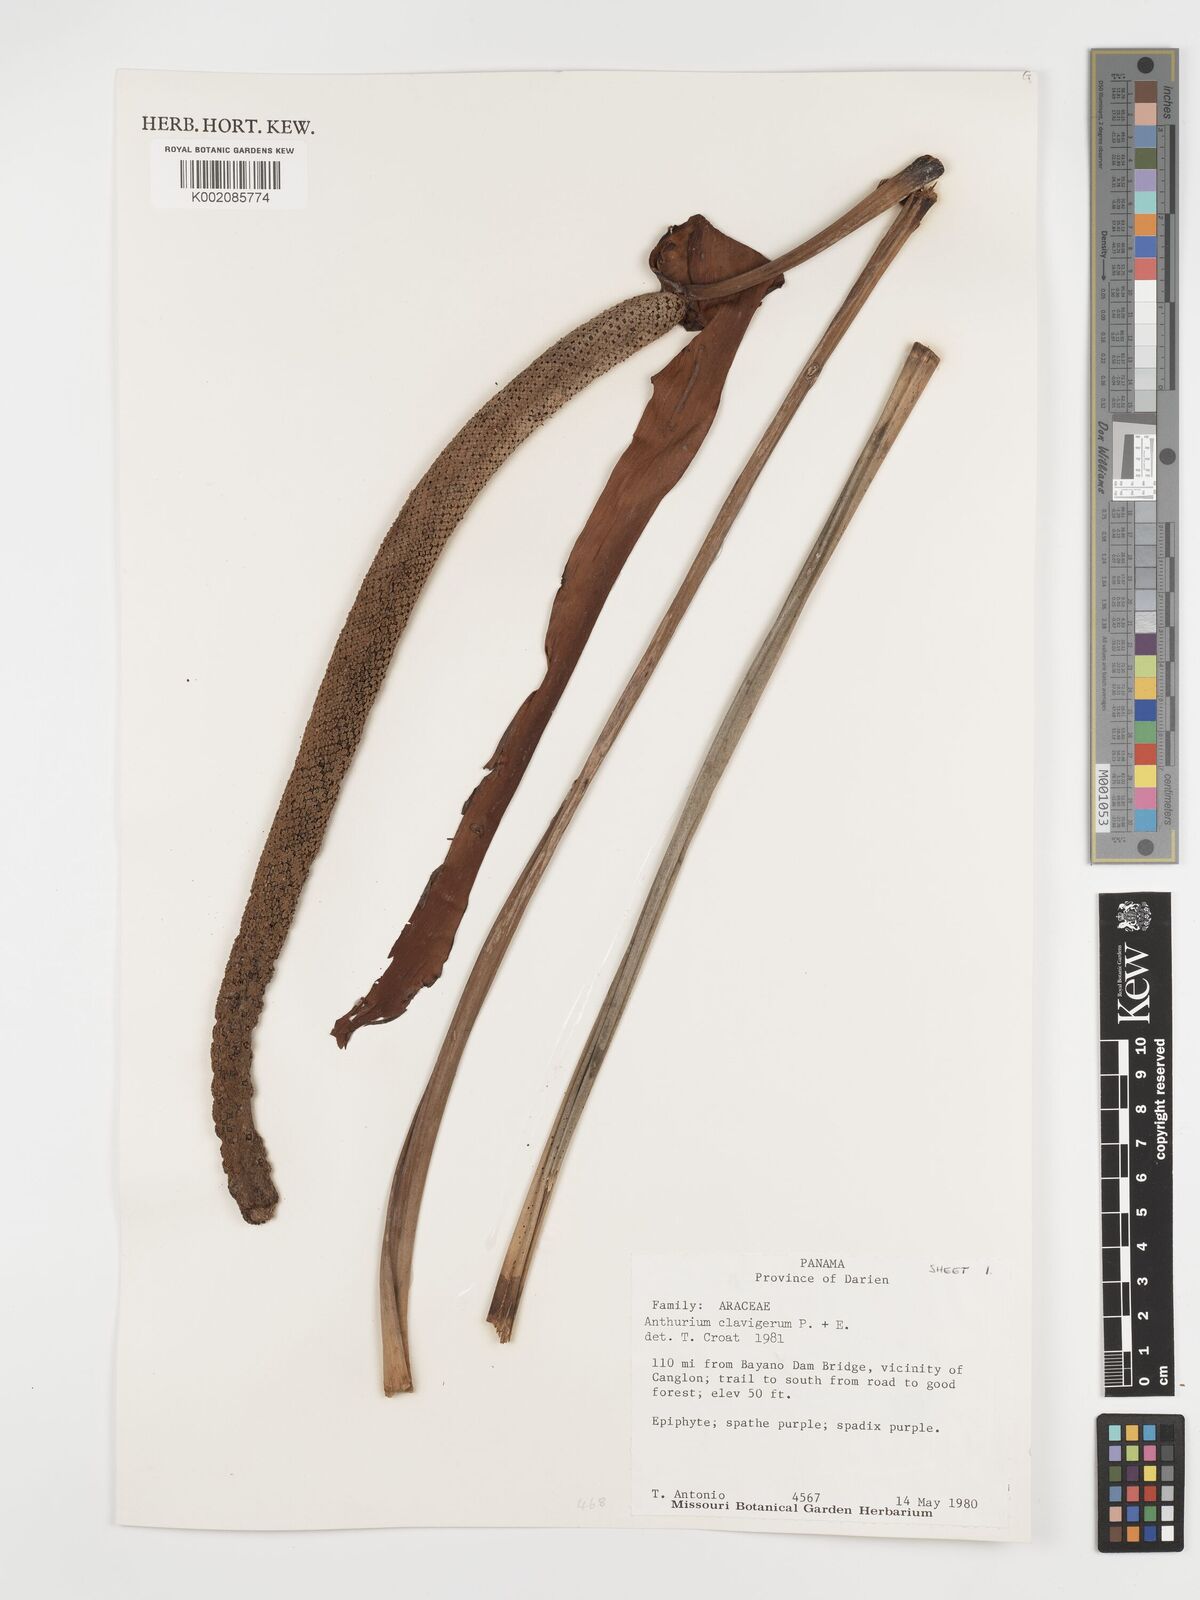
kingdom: Plantae
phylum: Tracheophyta
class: Liliopsida
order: Alismatales
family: Araceae
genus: Anthurium
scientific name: Anthurium clavigerum
